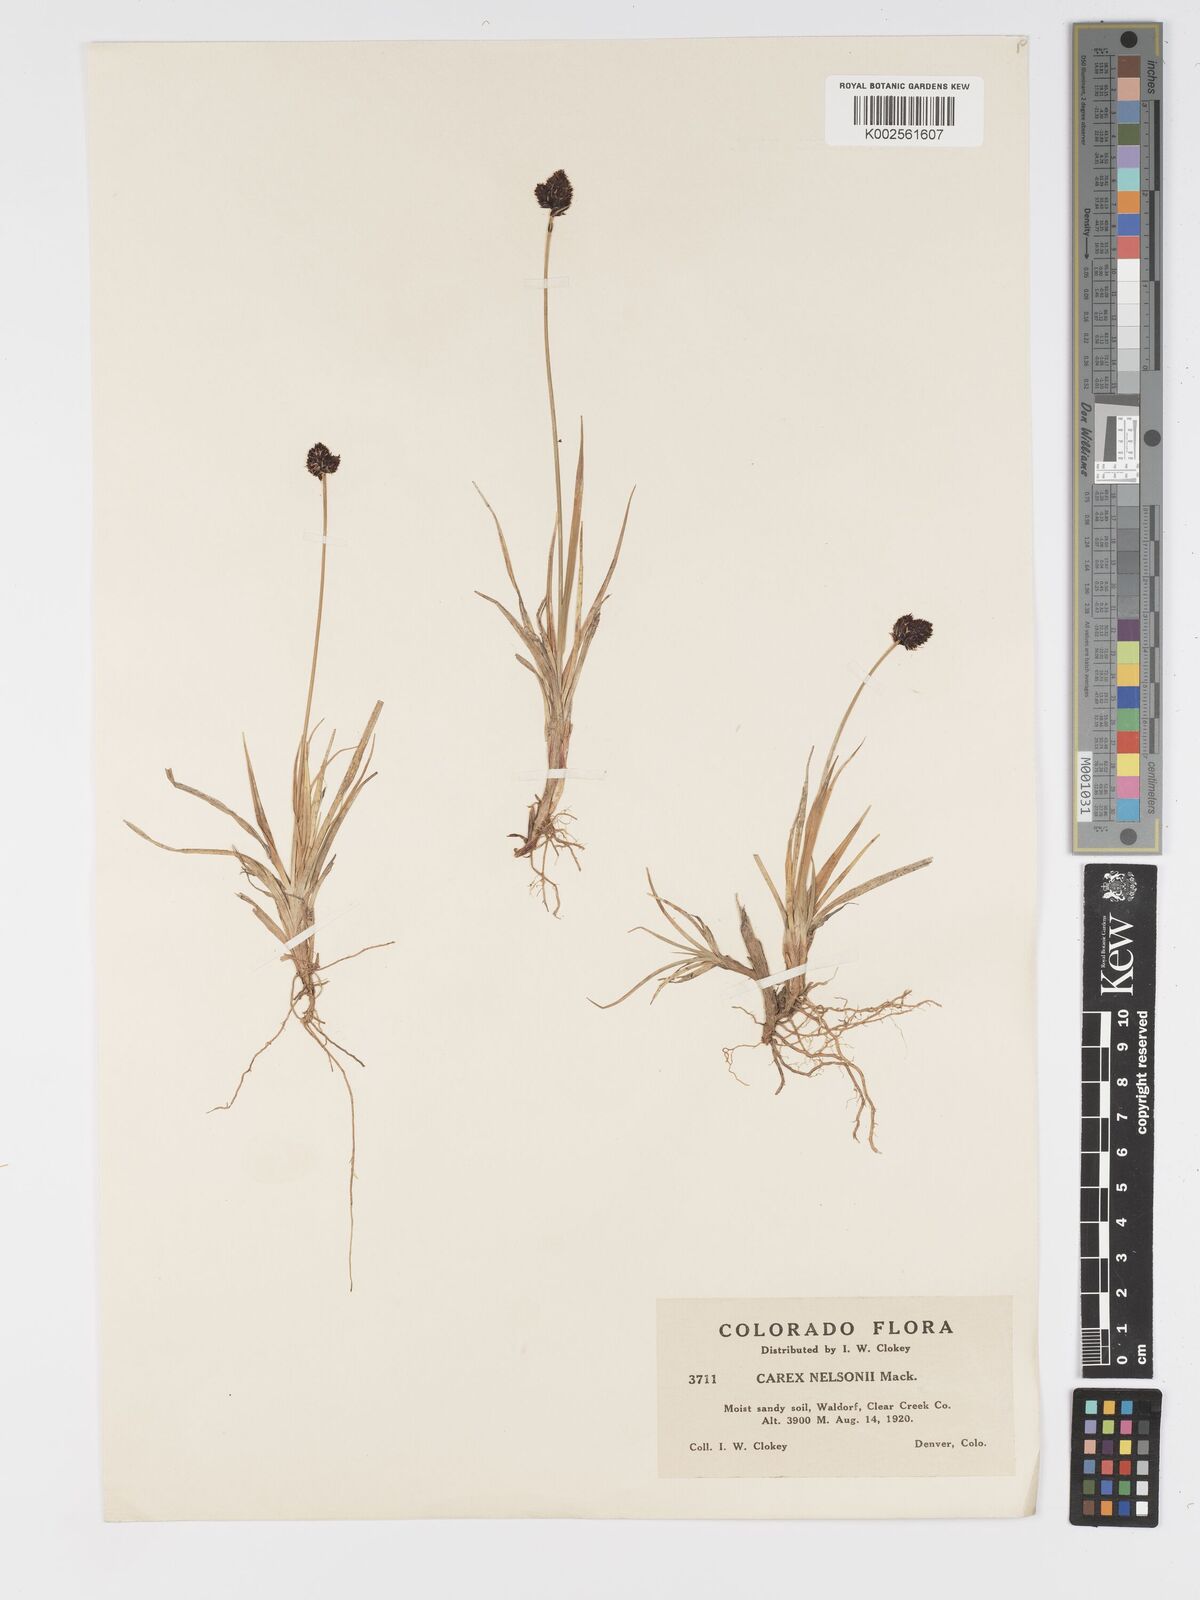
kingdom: Plantae
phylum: Tracheophyta
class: Liliopsida
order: Poales
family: Cyperaceae
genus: Carex
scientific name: Carex nelsonii
